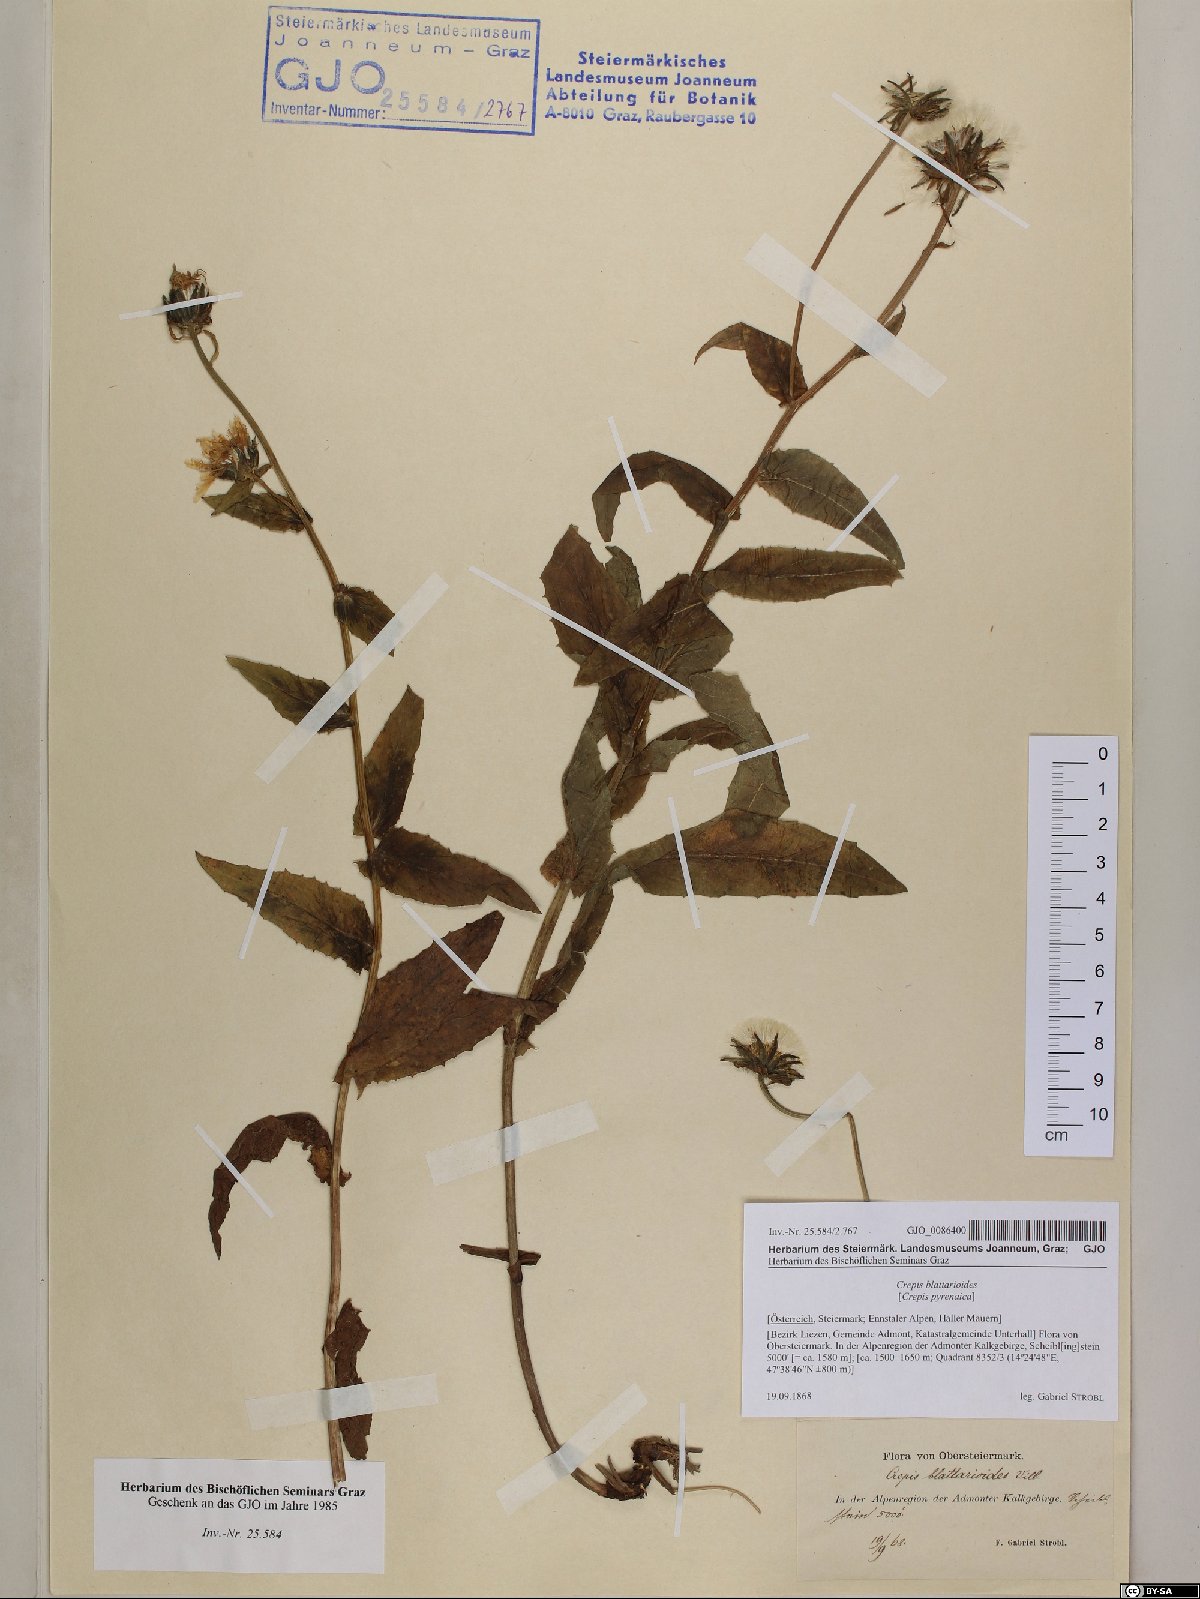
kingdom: Plantae
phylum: Tracheophyta
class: Magnoliopsida
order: Asterales
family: Asteraceae
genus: Crepis
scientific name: Crepis blattarioides
